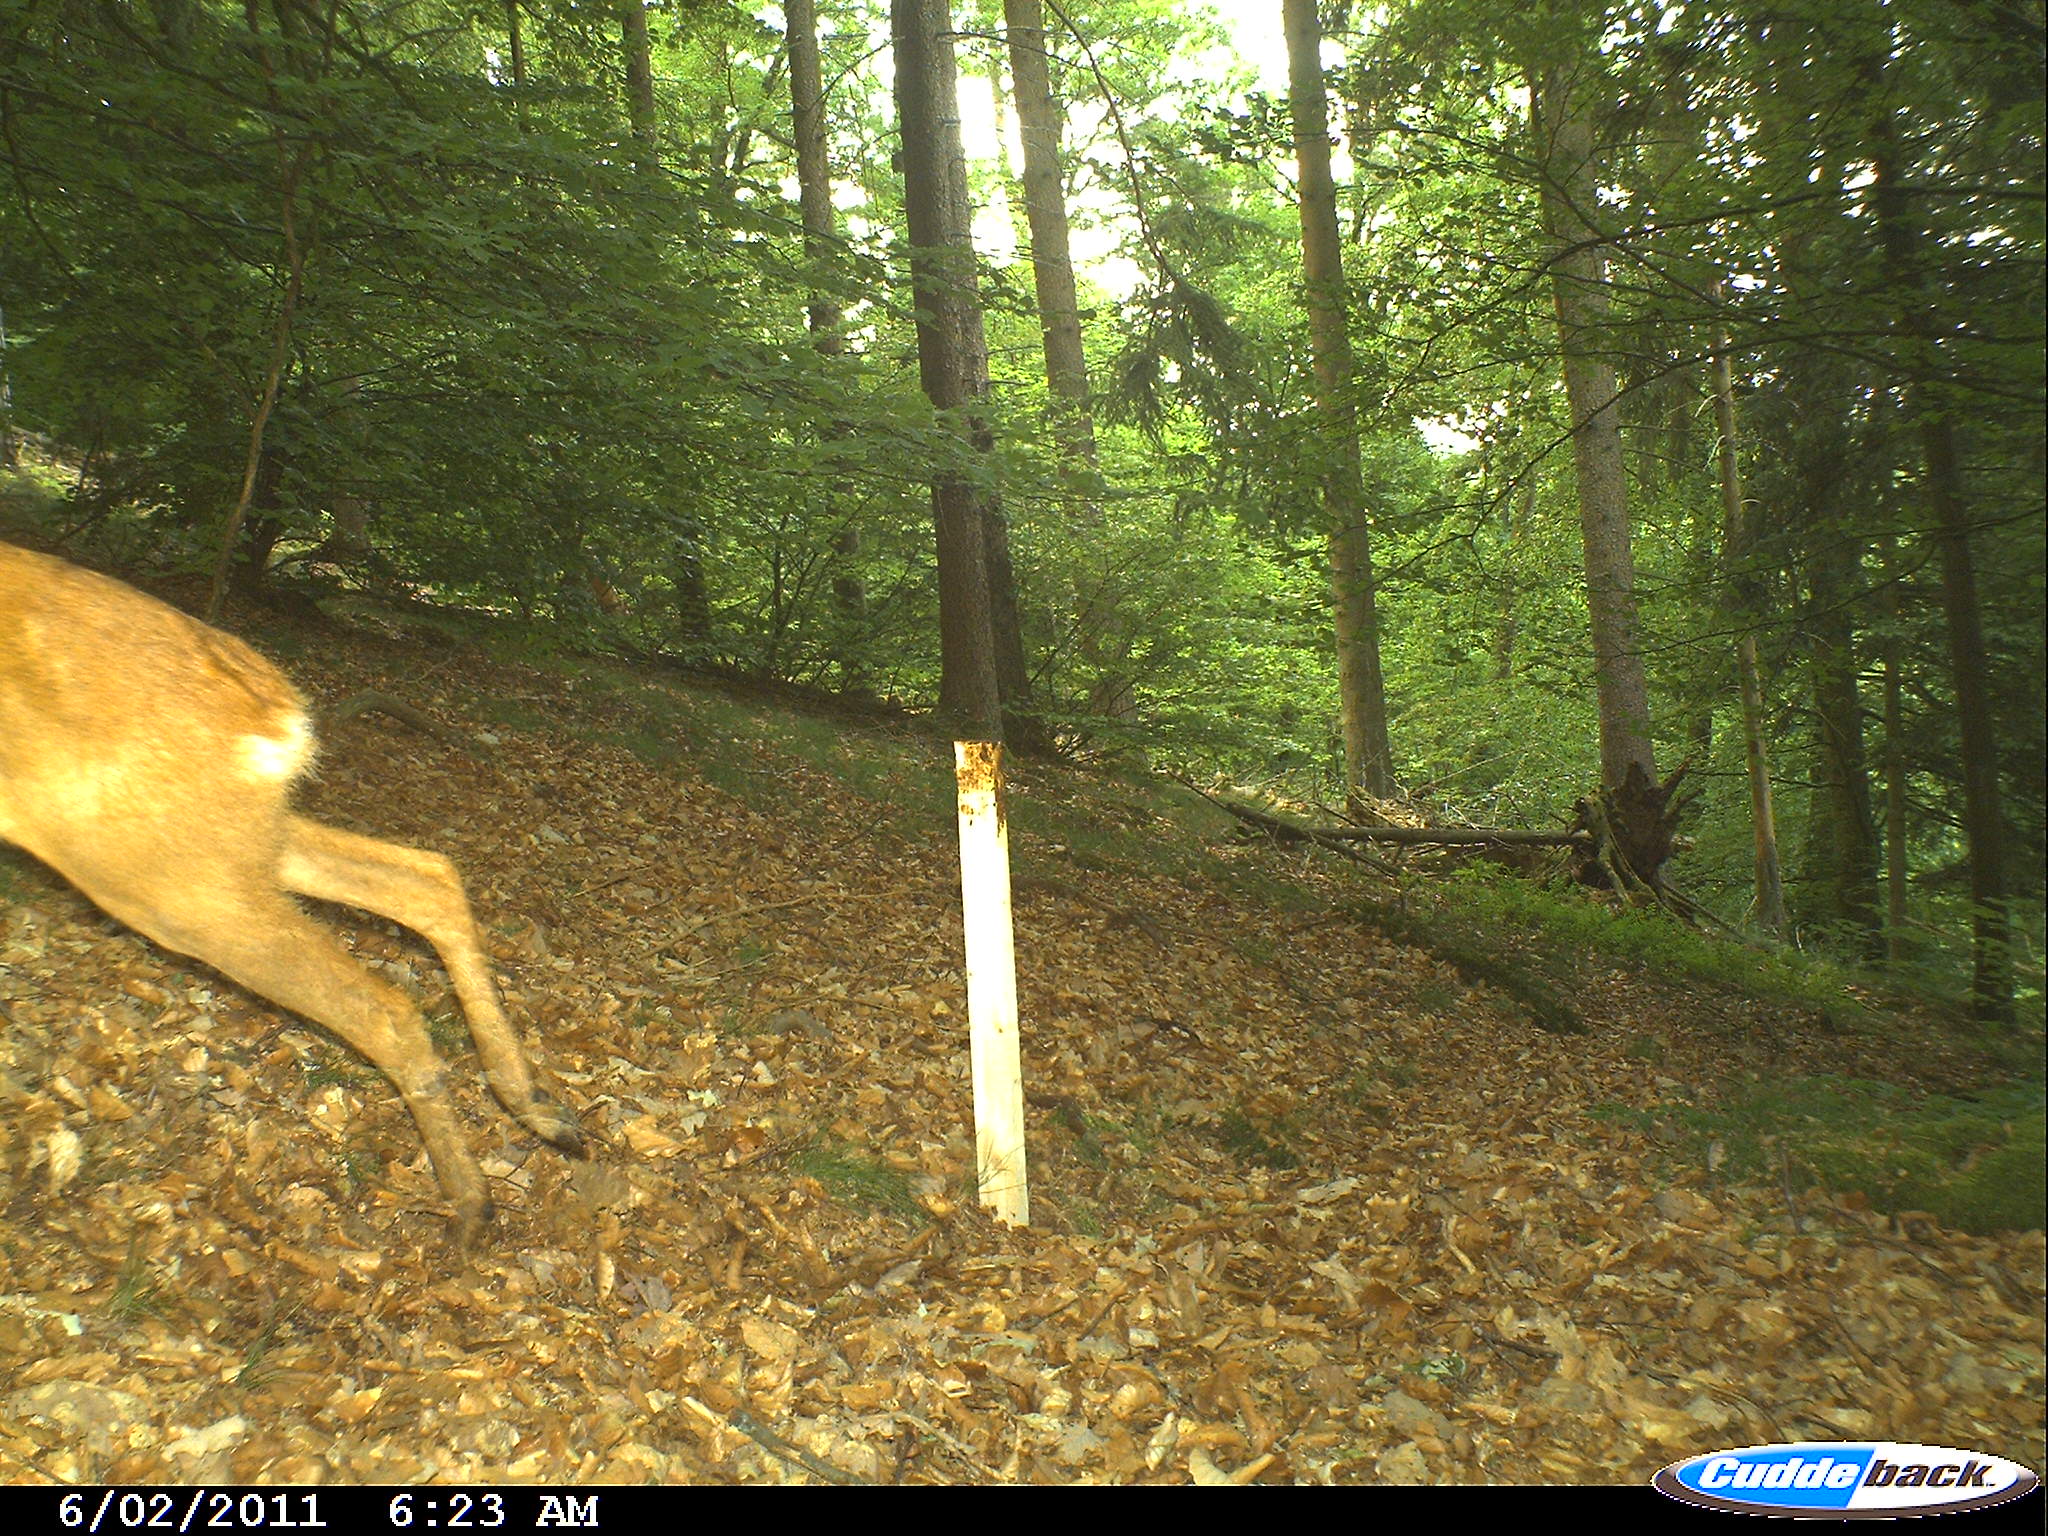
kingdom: Animalia
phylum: Chordata
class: Mammalia
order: Artiodactyla
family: Cervidae
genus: Capreolus
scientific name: Capreolus capreolus
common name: Western roe deer
